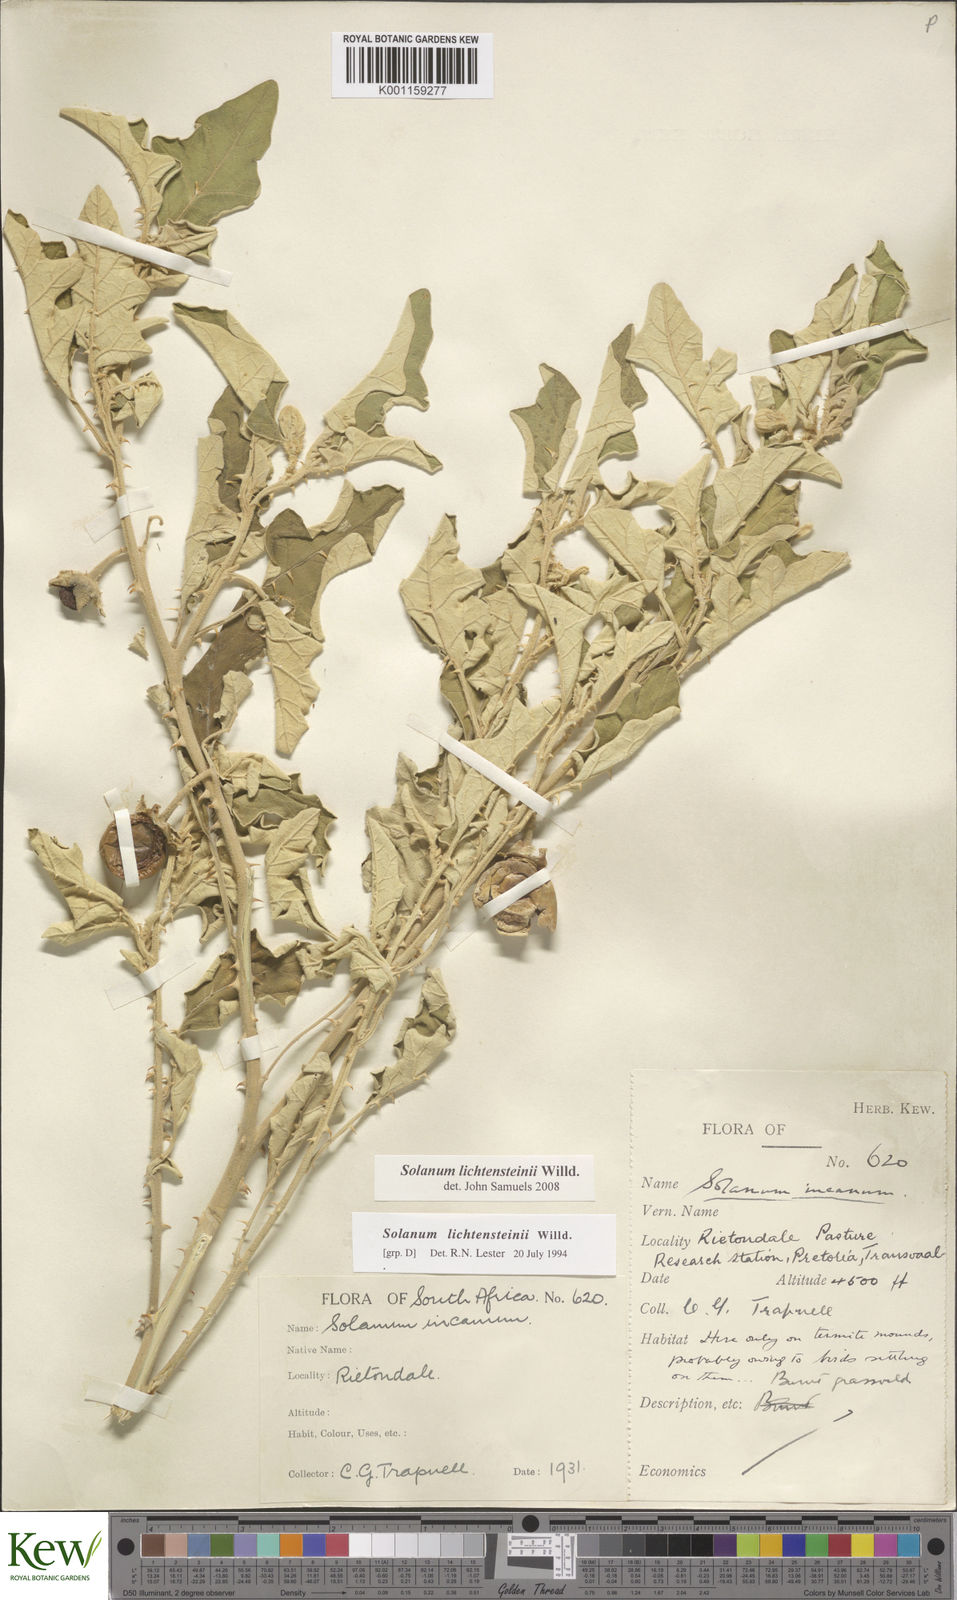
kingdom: Plantae
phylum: Tracheophyta
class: Magnoliopsida
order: Solanales
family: Solanaceae
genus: Solanum
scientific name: Solanum lichtensteinii
